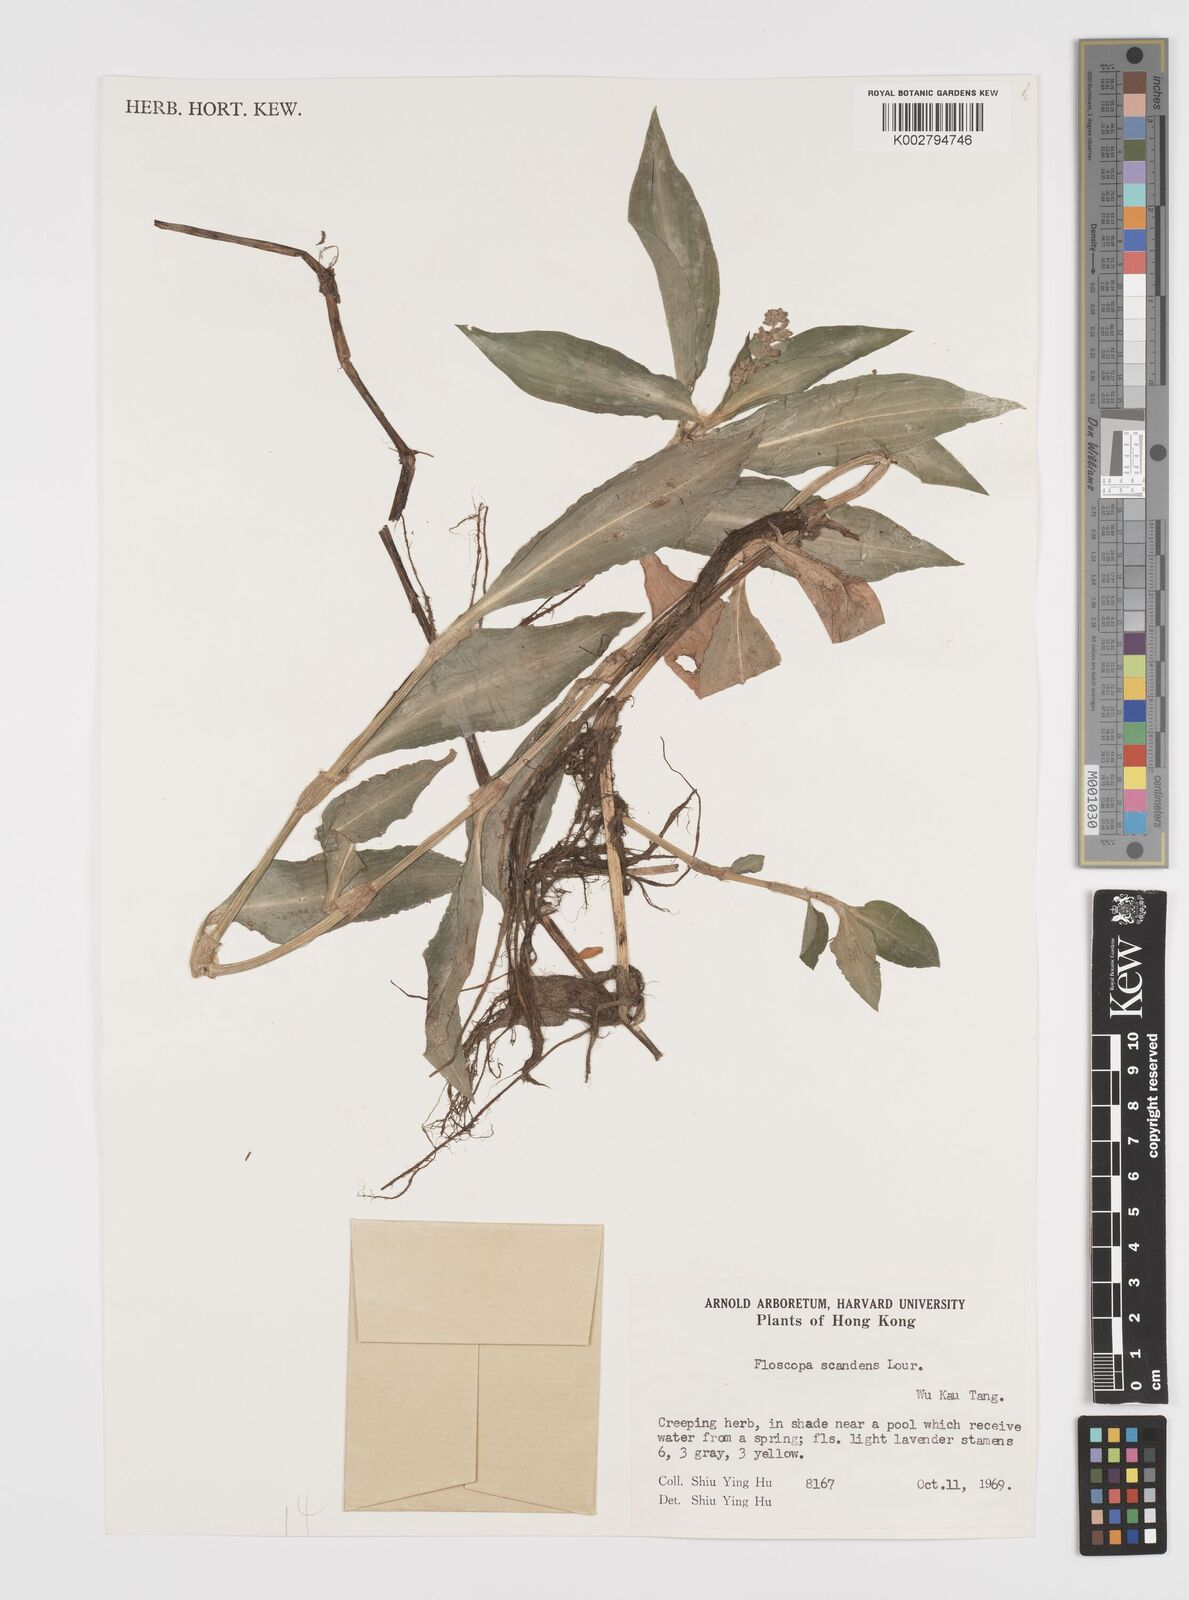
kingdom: Plantae
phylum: Tracheophyta
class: Liliopsida
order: Commelinales
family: Commelinaceae
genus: Floscopa
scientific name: Floscopa scandens
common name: Climbing flower cup
